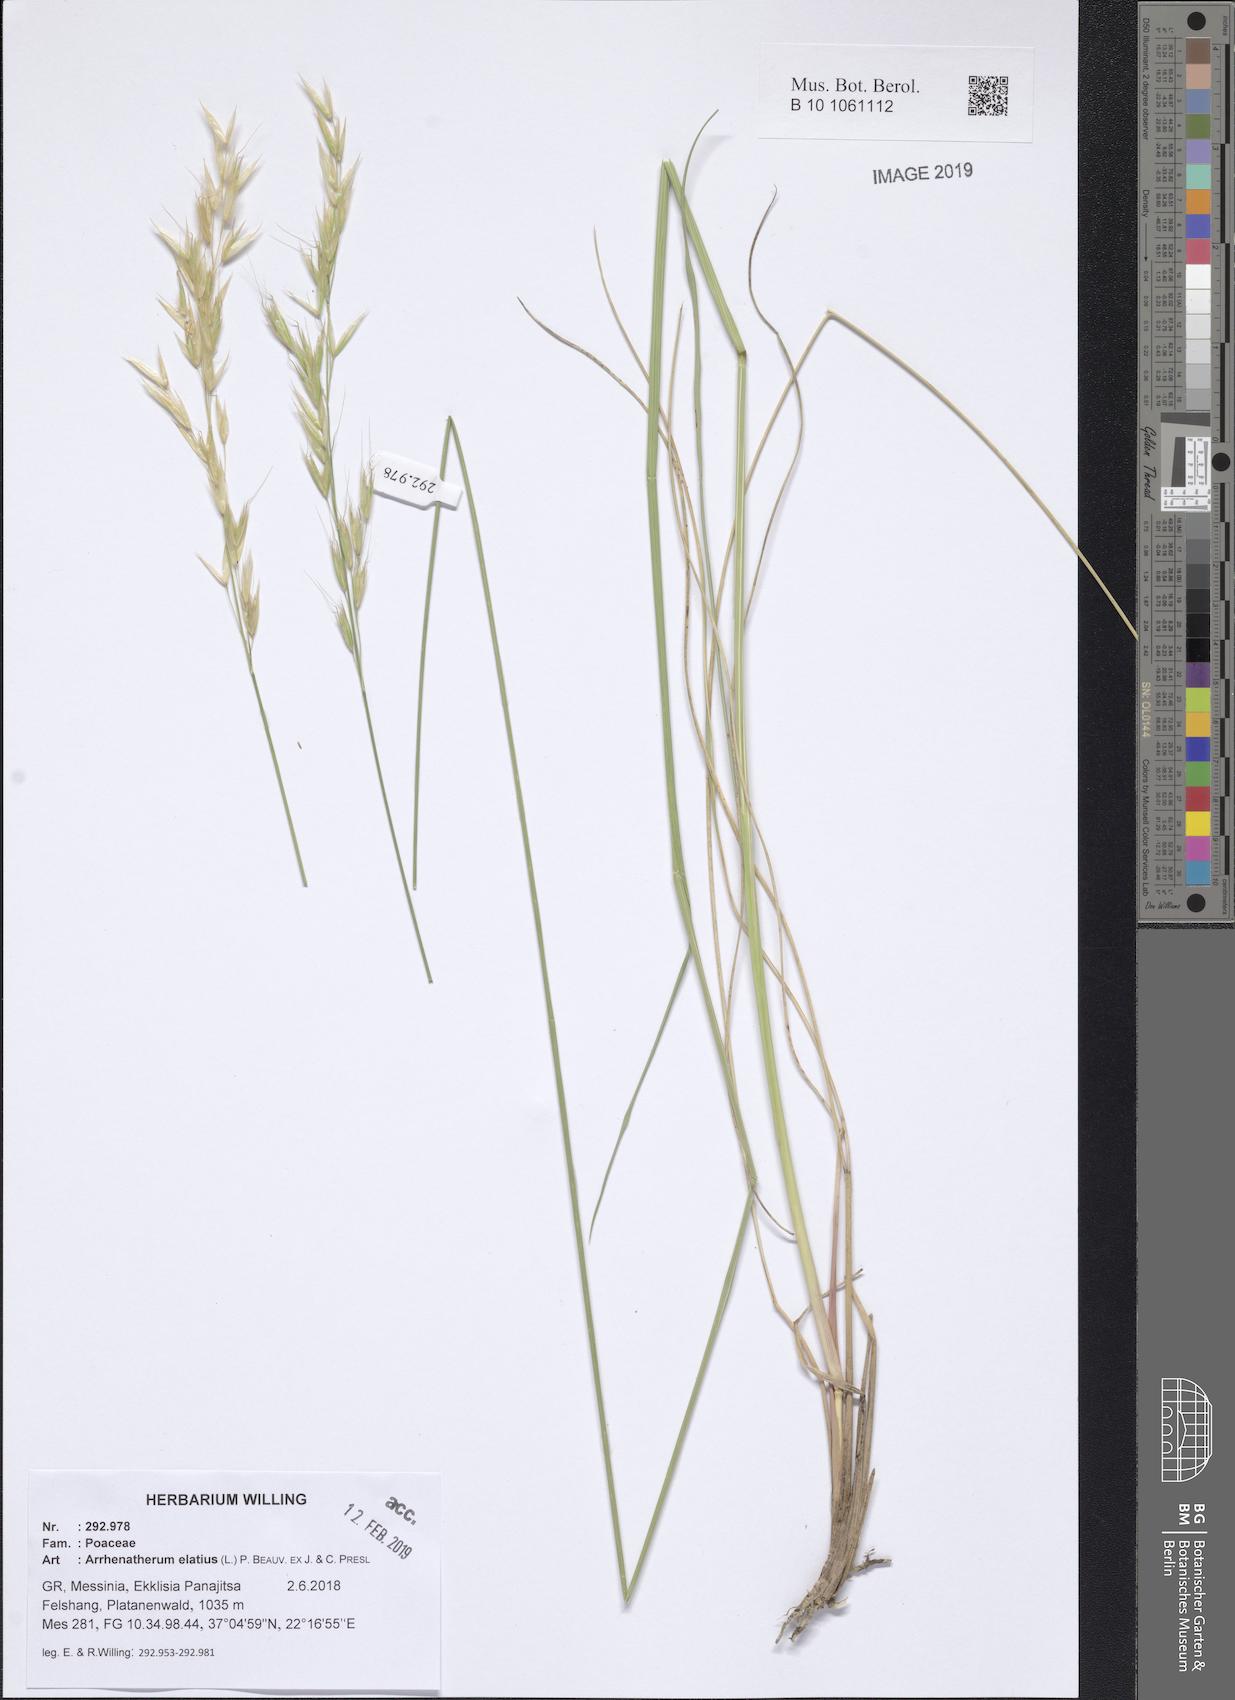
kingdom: Plantae
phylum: Tracheophyta
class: Liliopsida
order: Poales
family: Poaceae
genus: Arrhenatherum
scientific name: Arrhenatherum elatius
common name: Tall oatgrass
